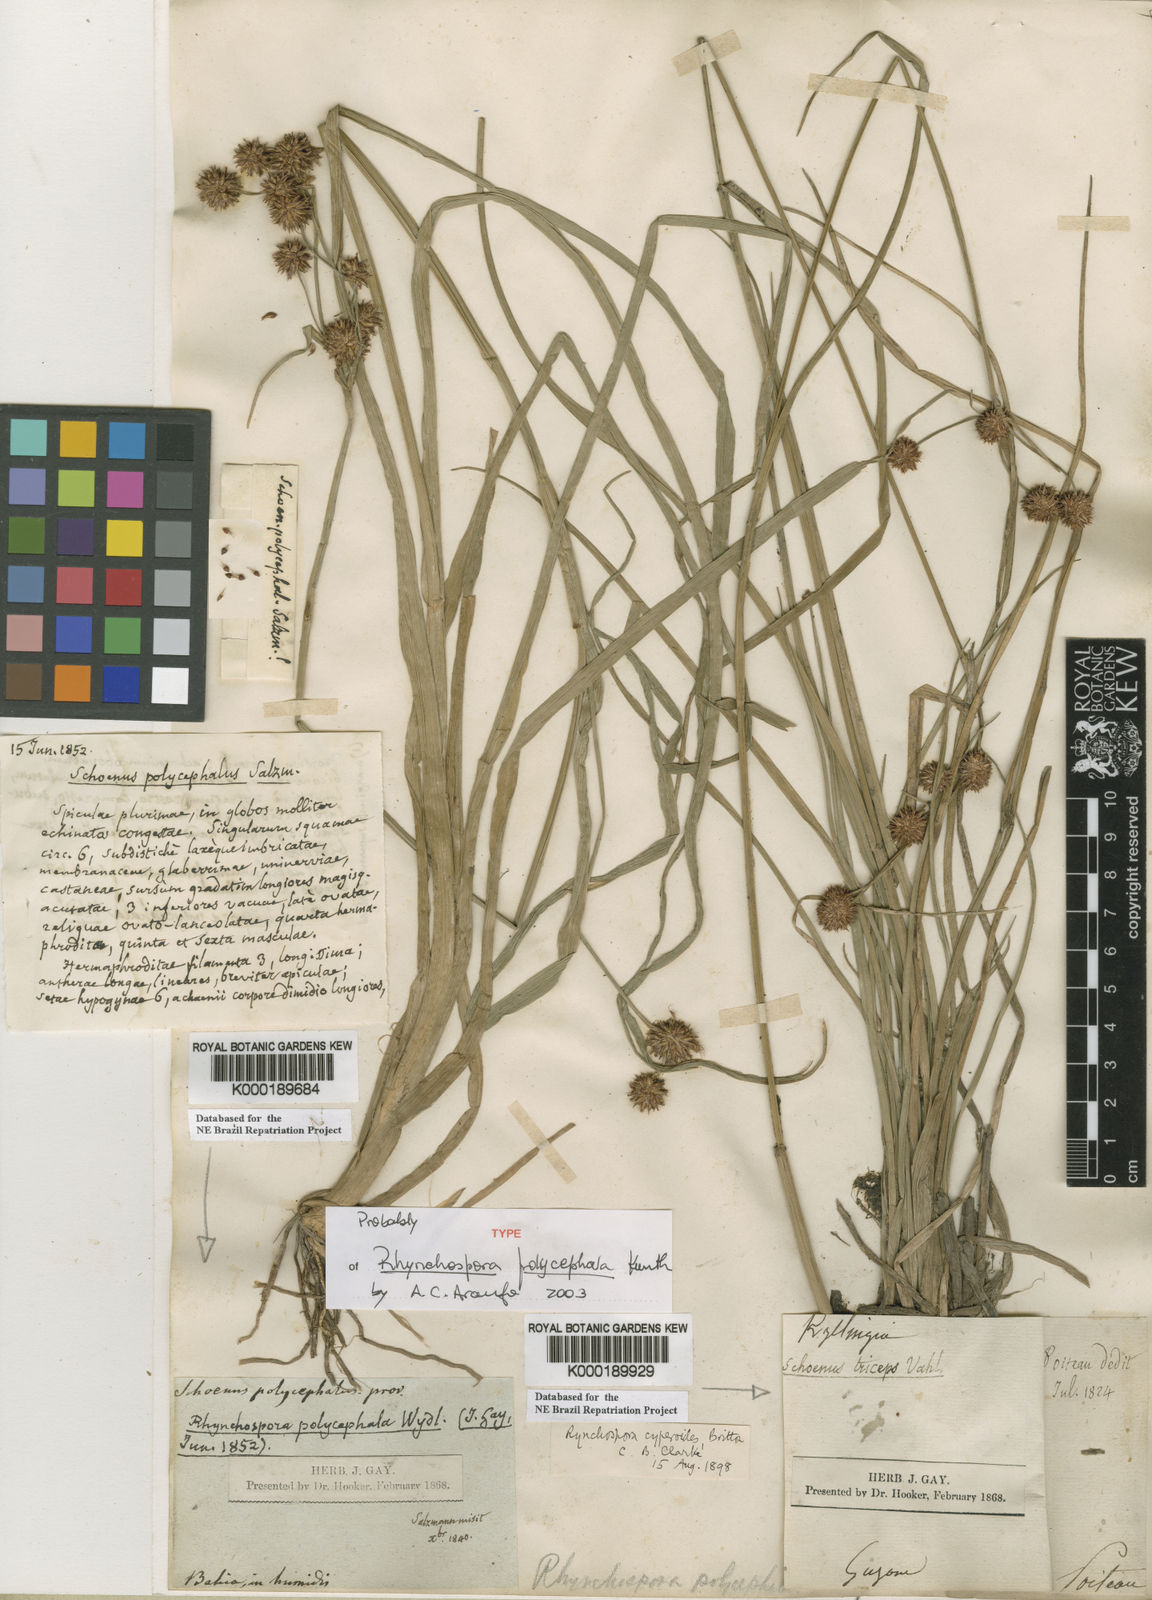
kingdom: Plantae
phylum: Tracheophyta
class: Liliopsida
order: Poales
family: Cyperaceae
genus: Rhynchospora
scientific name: Rhynchospora holoschoenoides
